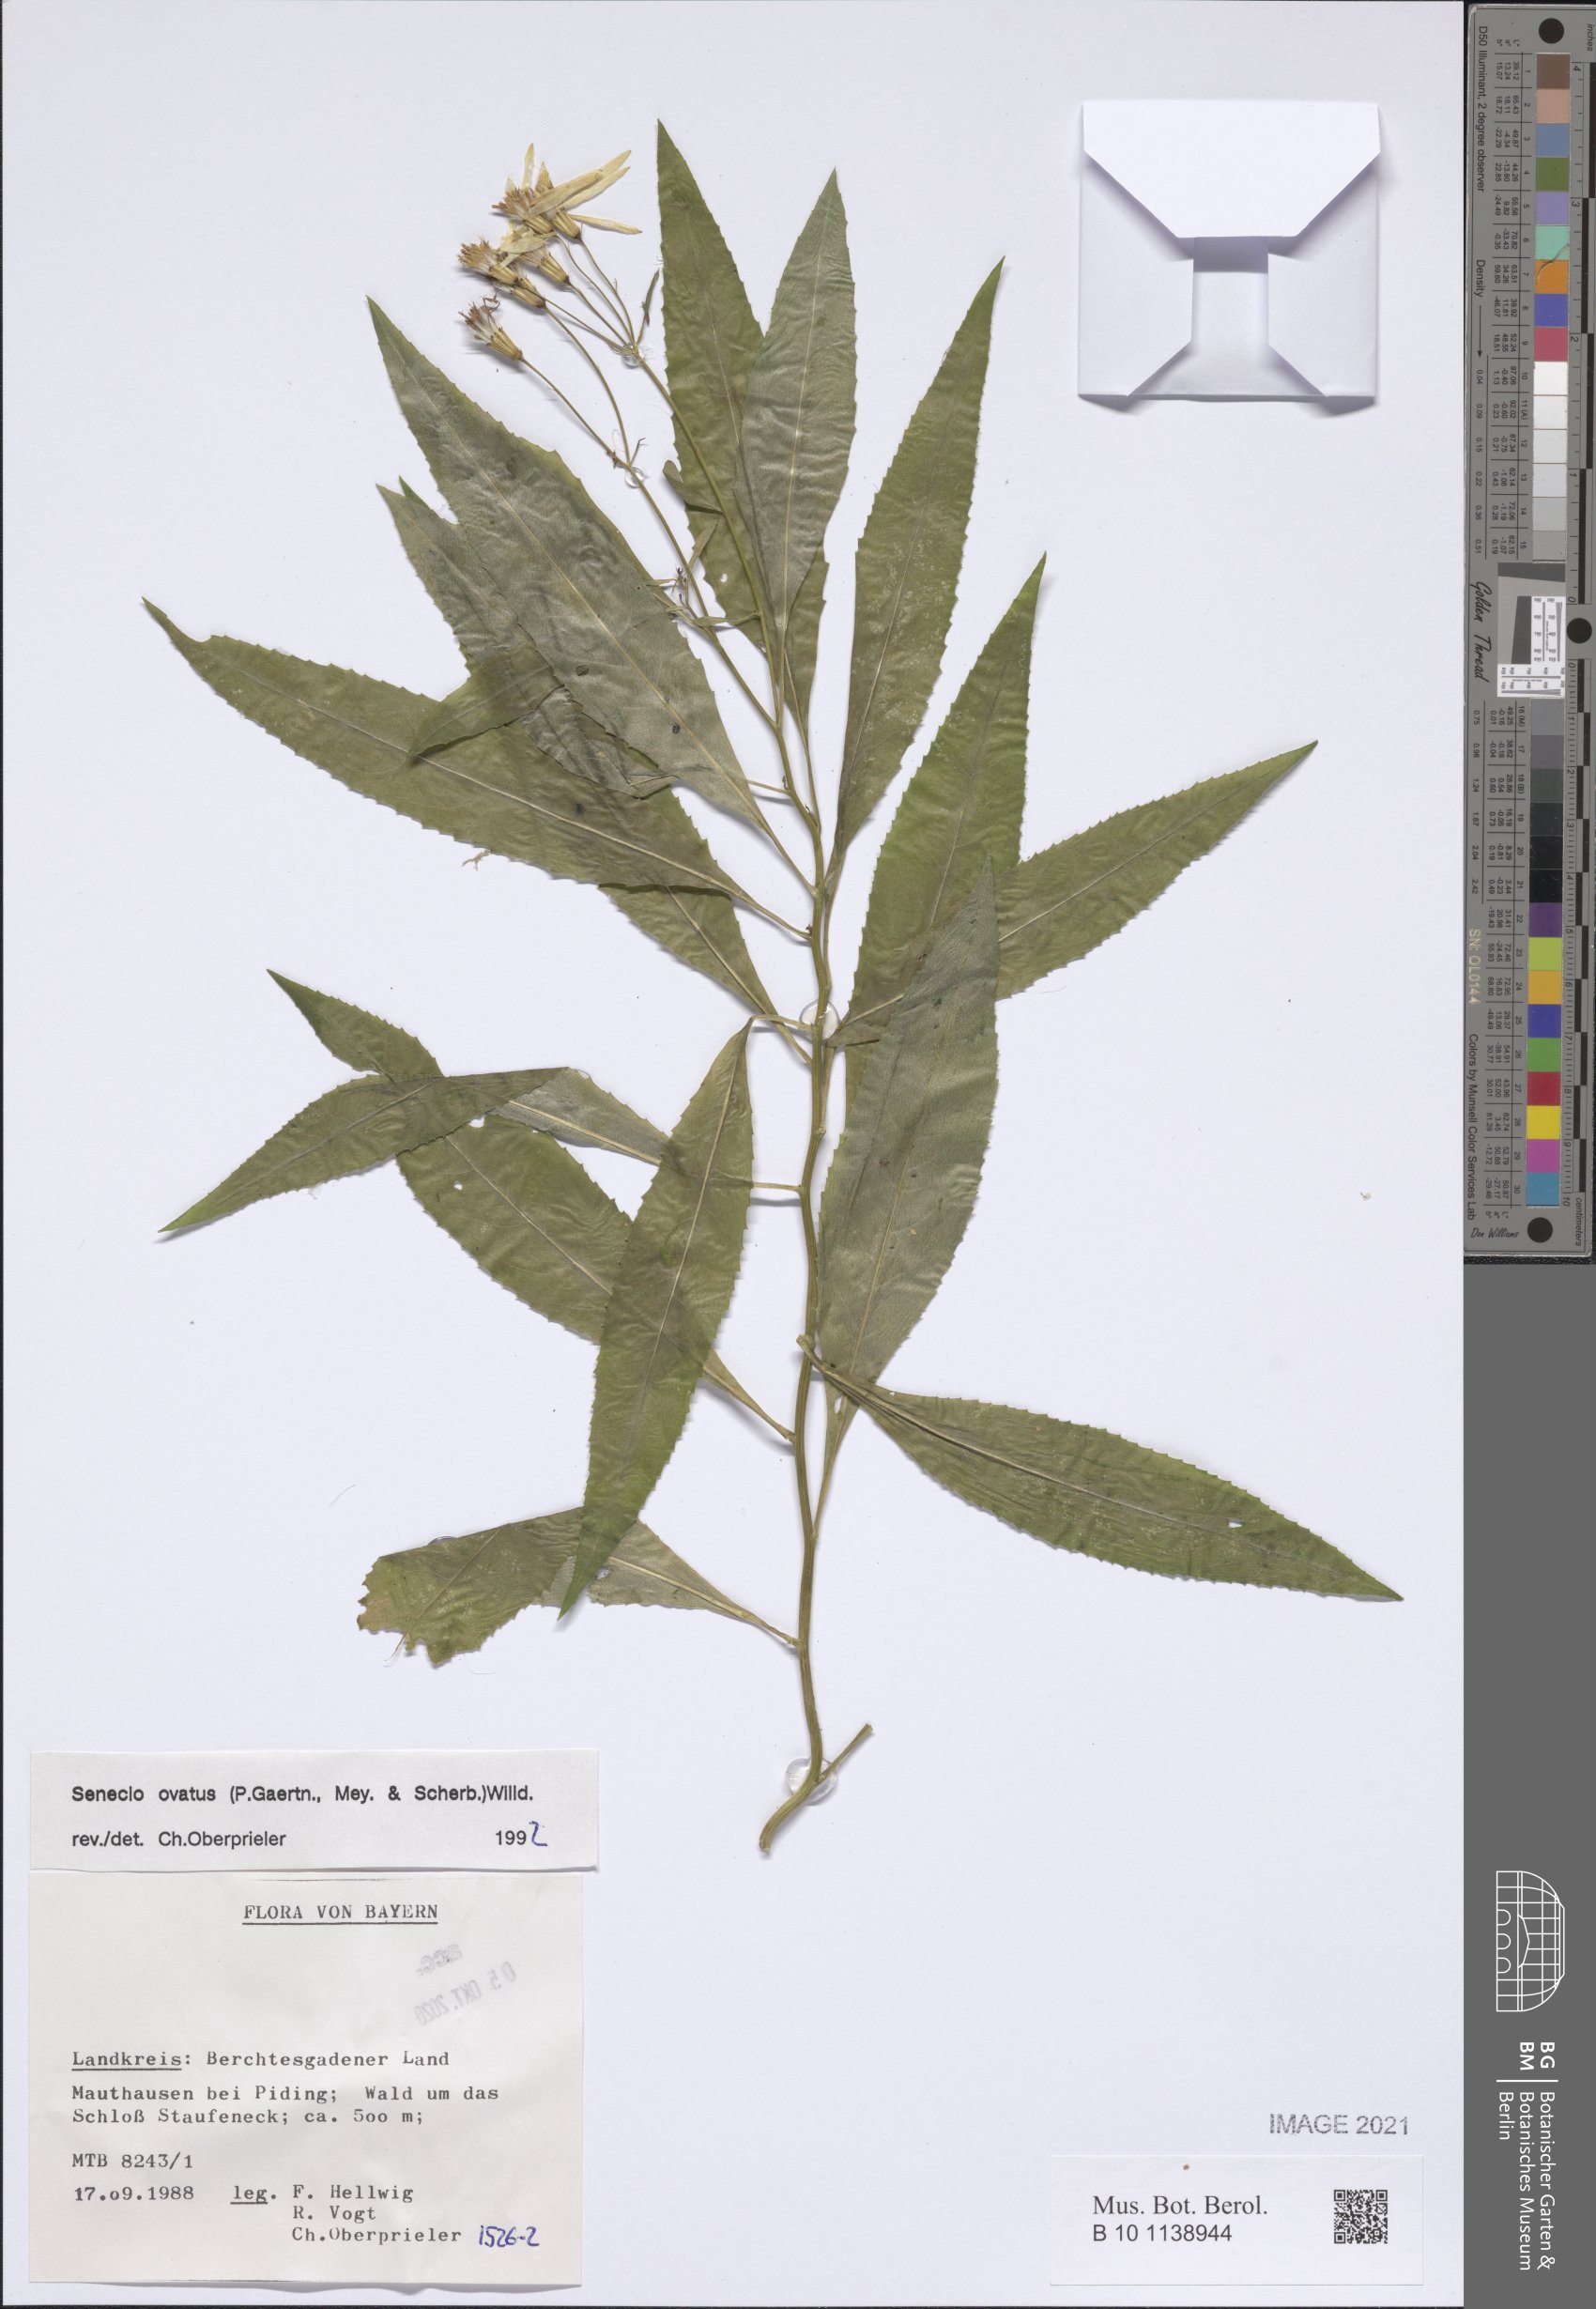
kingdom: Plantae
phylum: Tracheophyta
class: Magnoliopsida
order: Asterales
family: Asteraceae
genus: Senecio
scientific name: Senecio ovatus
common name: Wood ragwort
